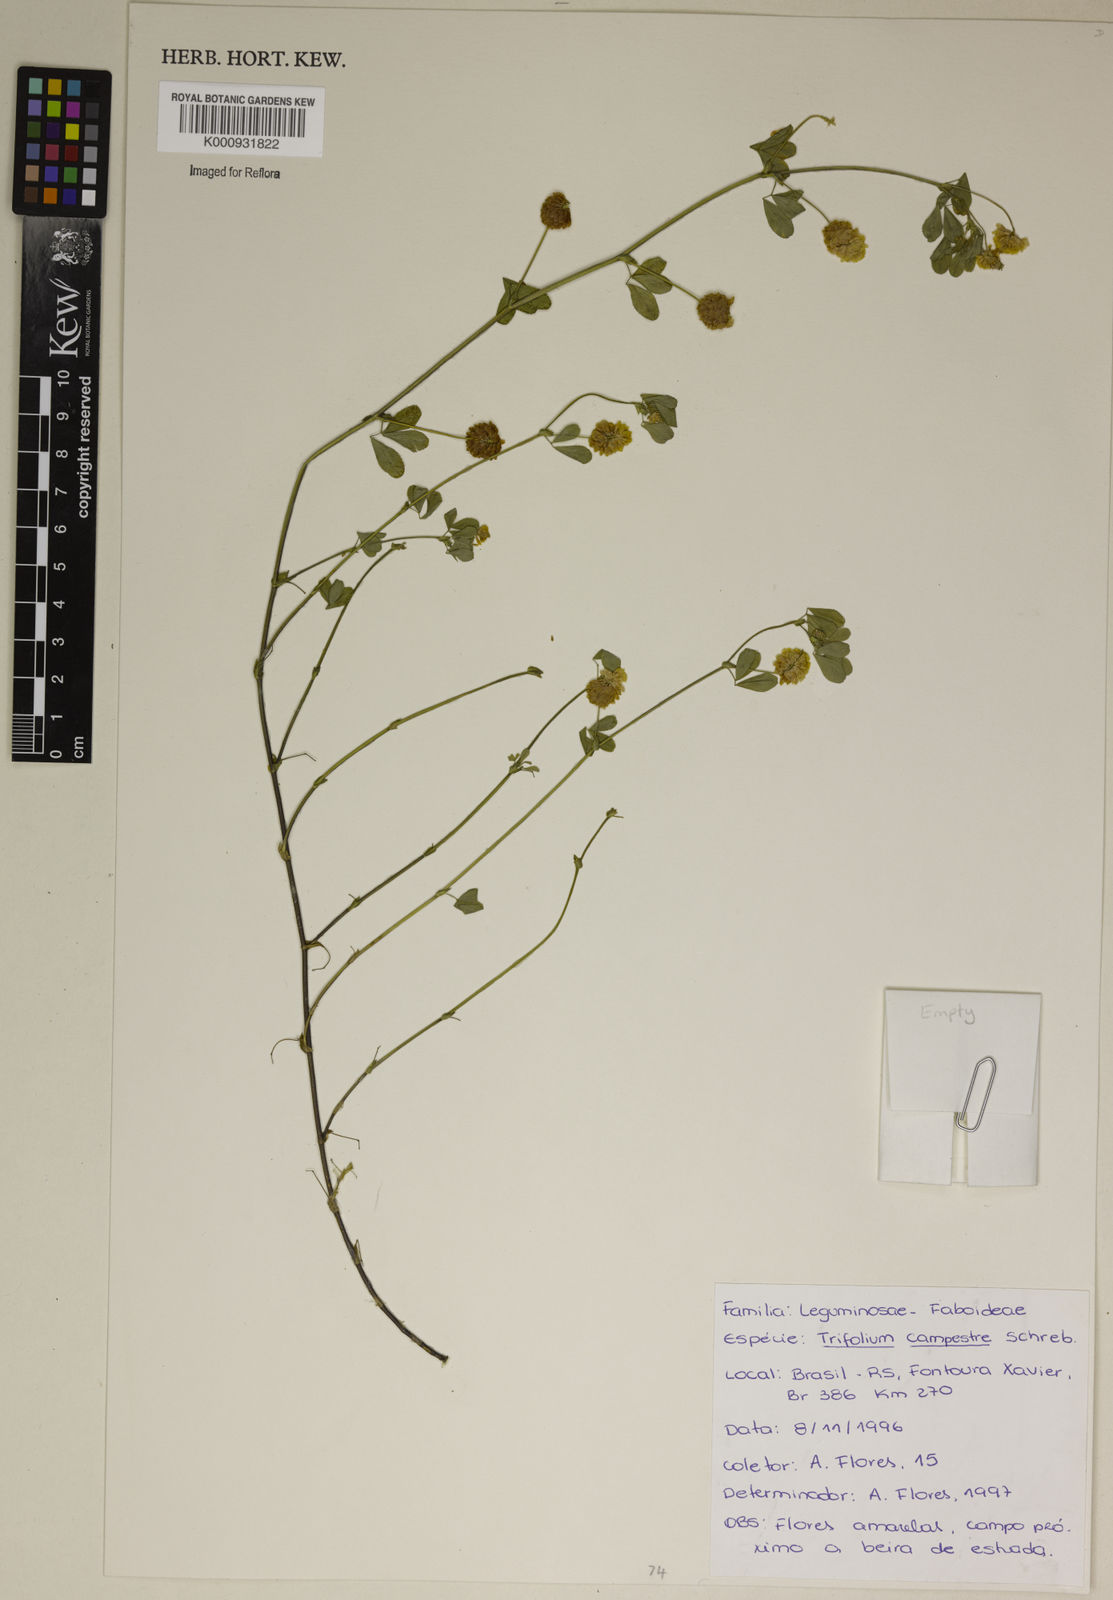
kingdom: Plantae
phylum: Tracheophyta
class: Magnoliopsida
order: Fabales
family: Fabaceae
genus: Trifolium
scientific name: Trifolium campestre
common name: Field clover
